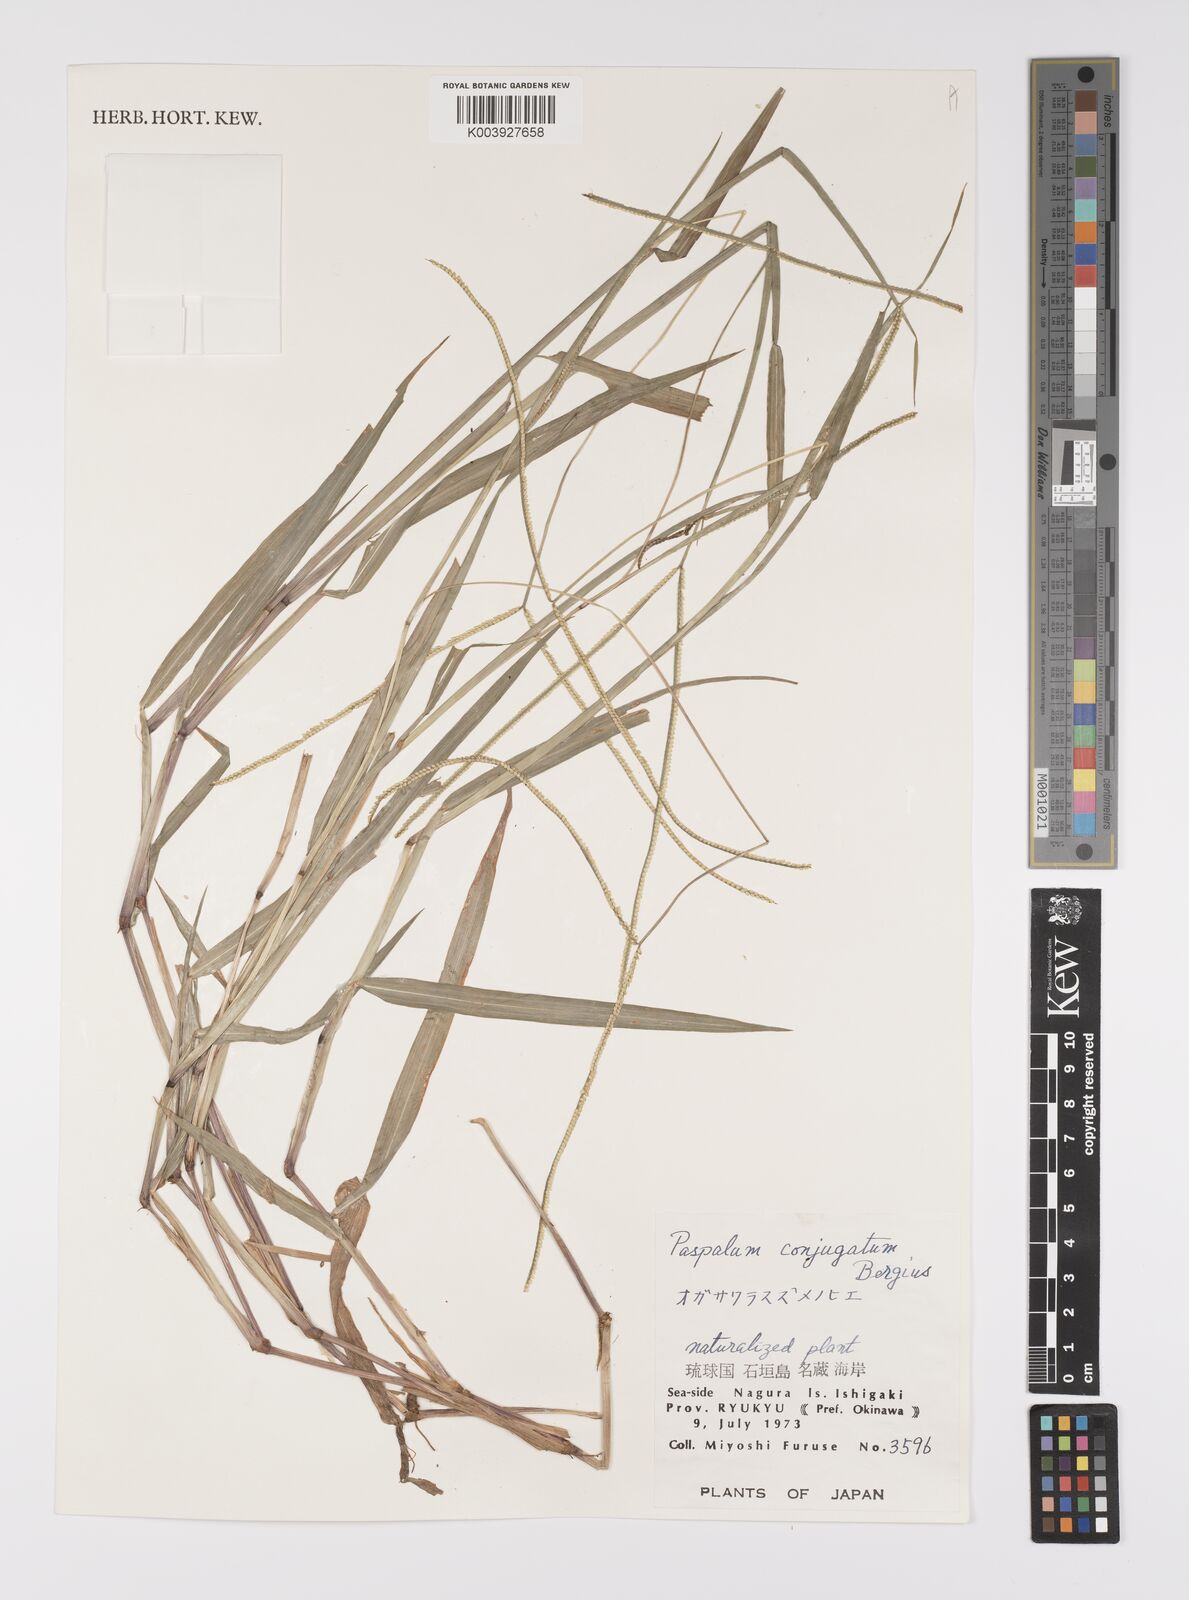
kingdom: Plantae
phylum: Tracheophyta
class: Liliopsida
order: Poales
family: Poaceae
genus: Paspalum
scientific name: Paspalum conjugatum
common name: Hilograss
